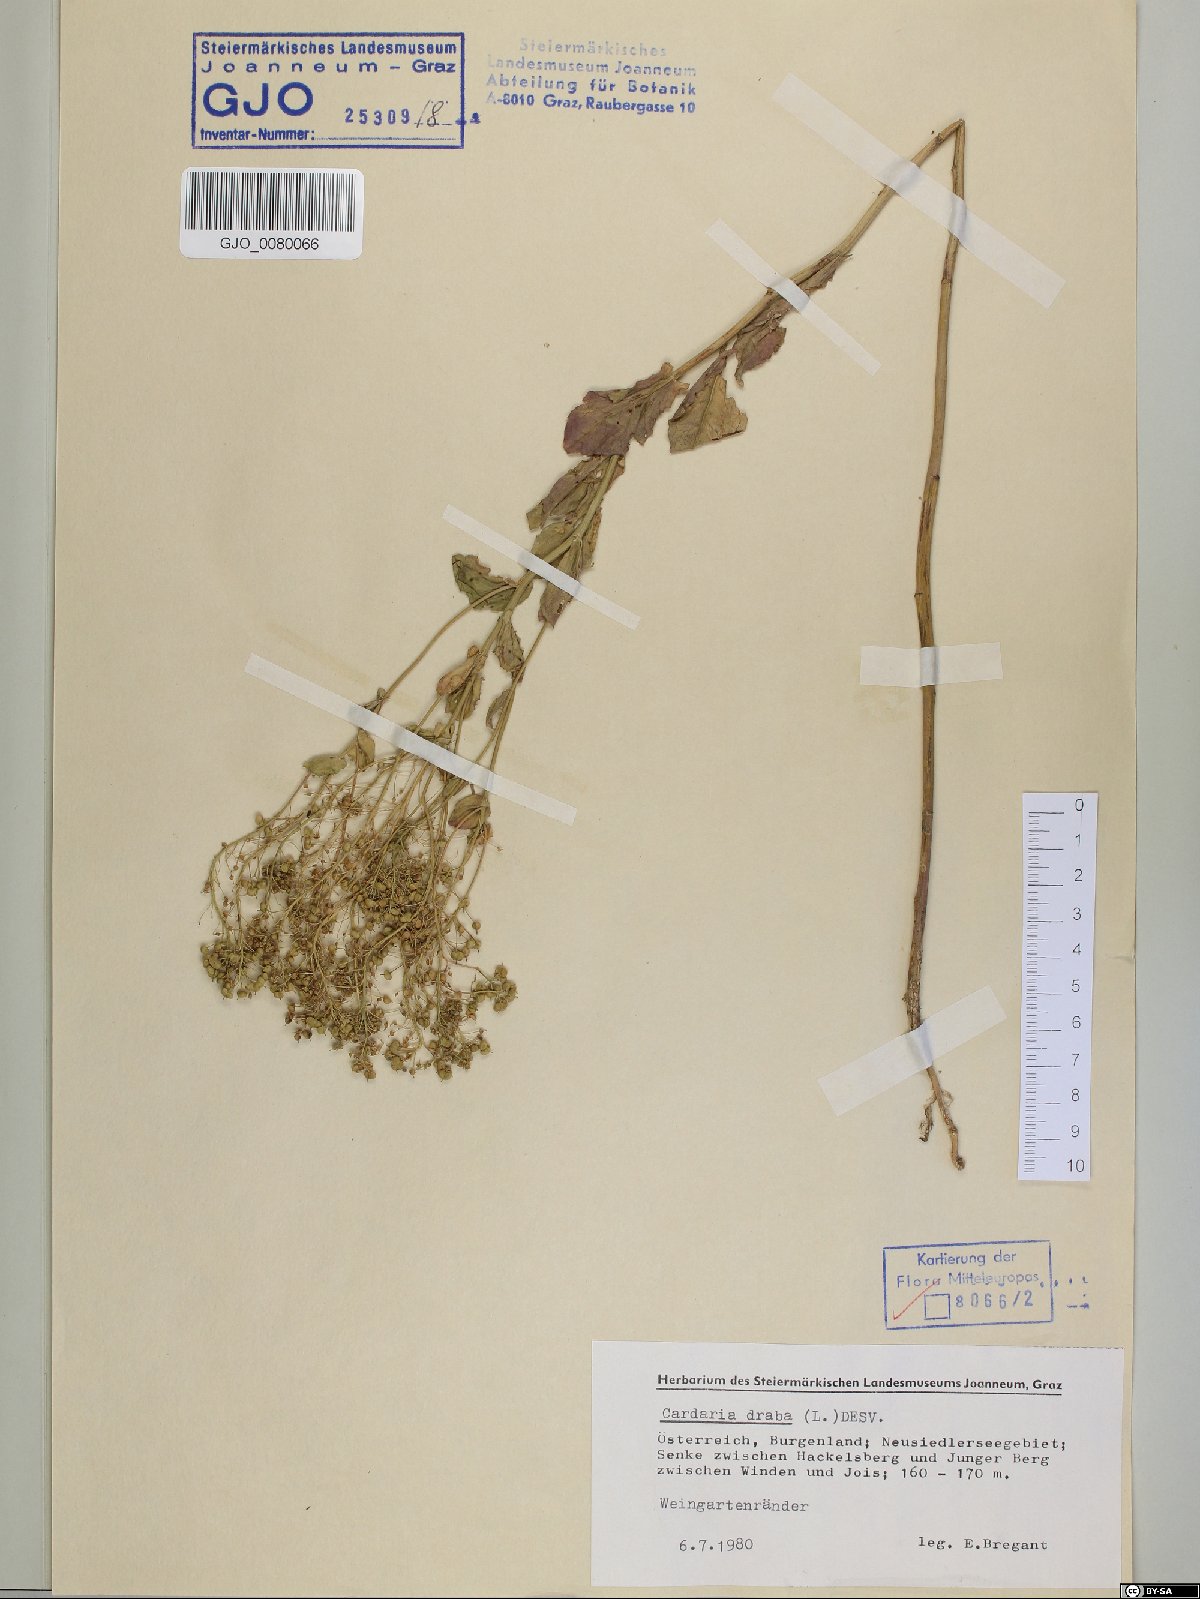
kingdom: Plantae
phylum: Tracheophyta
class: Magnoliopsida
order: Brassicales
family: Brassicaceae
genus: Lepidium
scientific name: Lepidium draba
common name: Hoary cress
